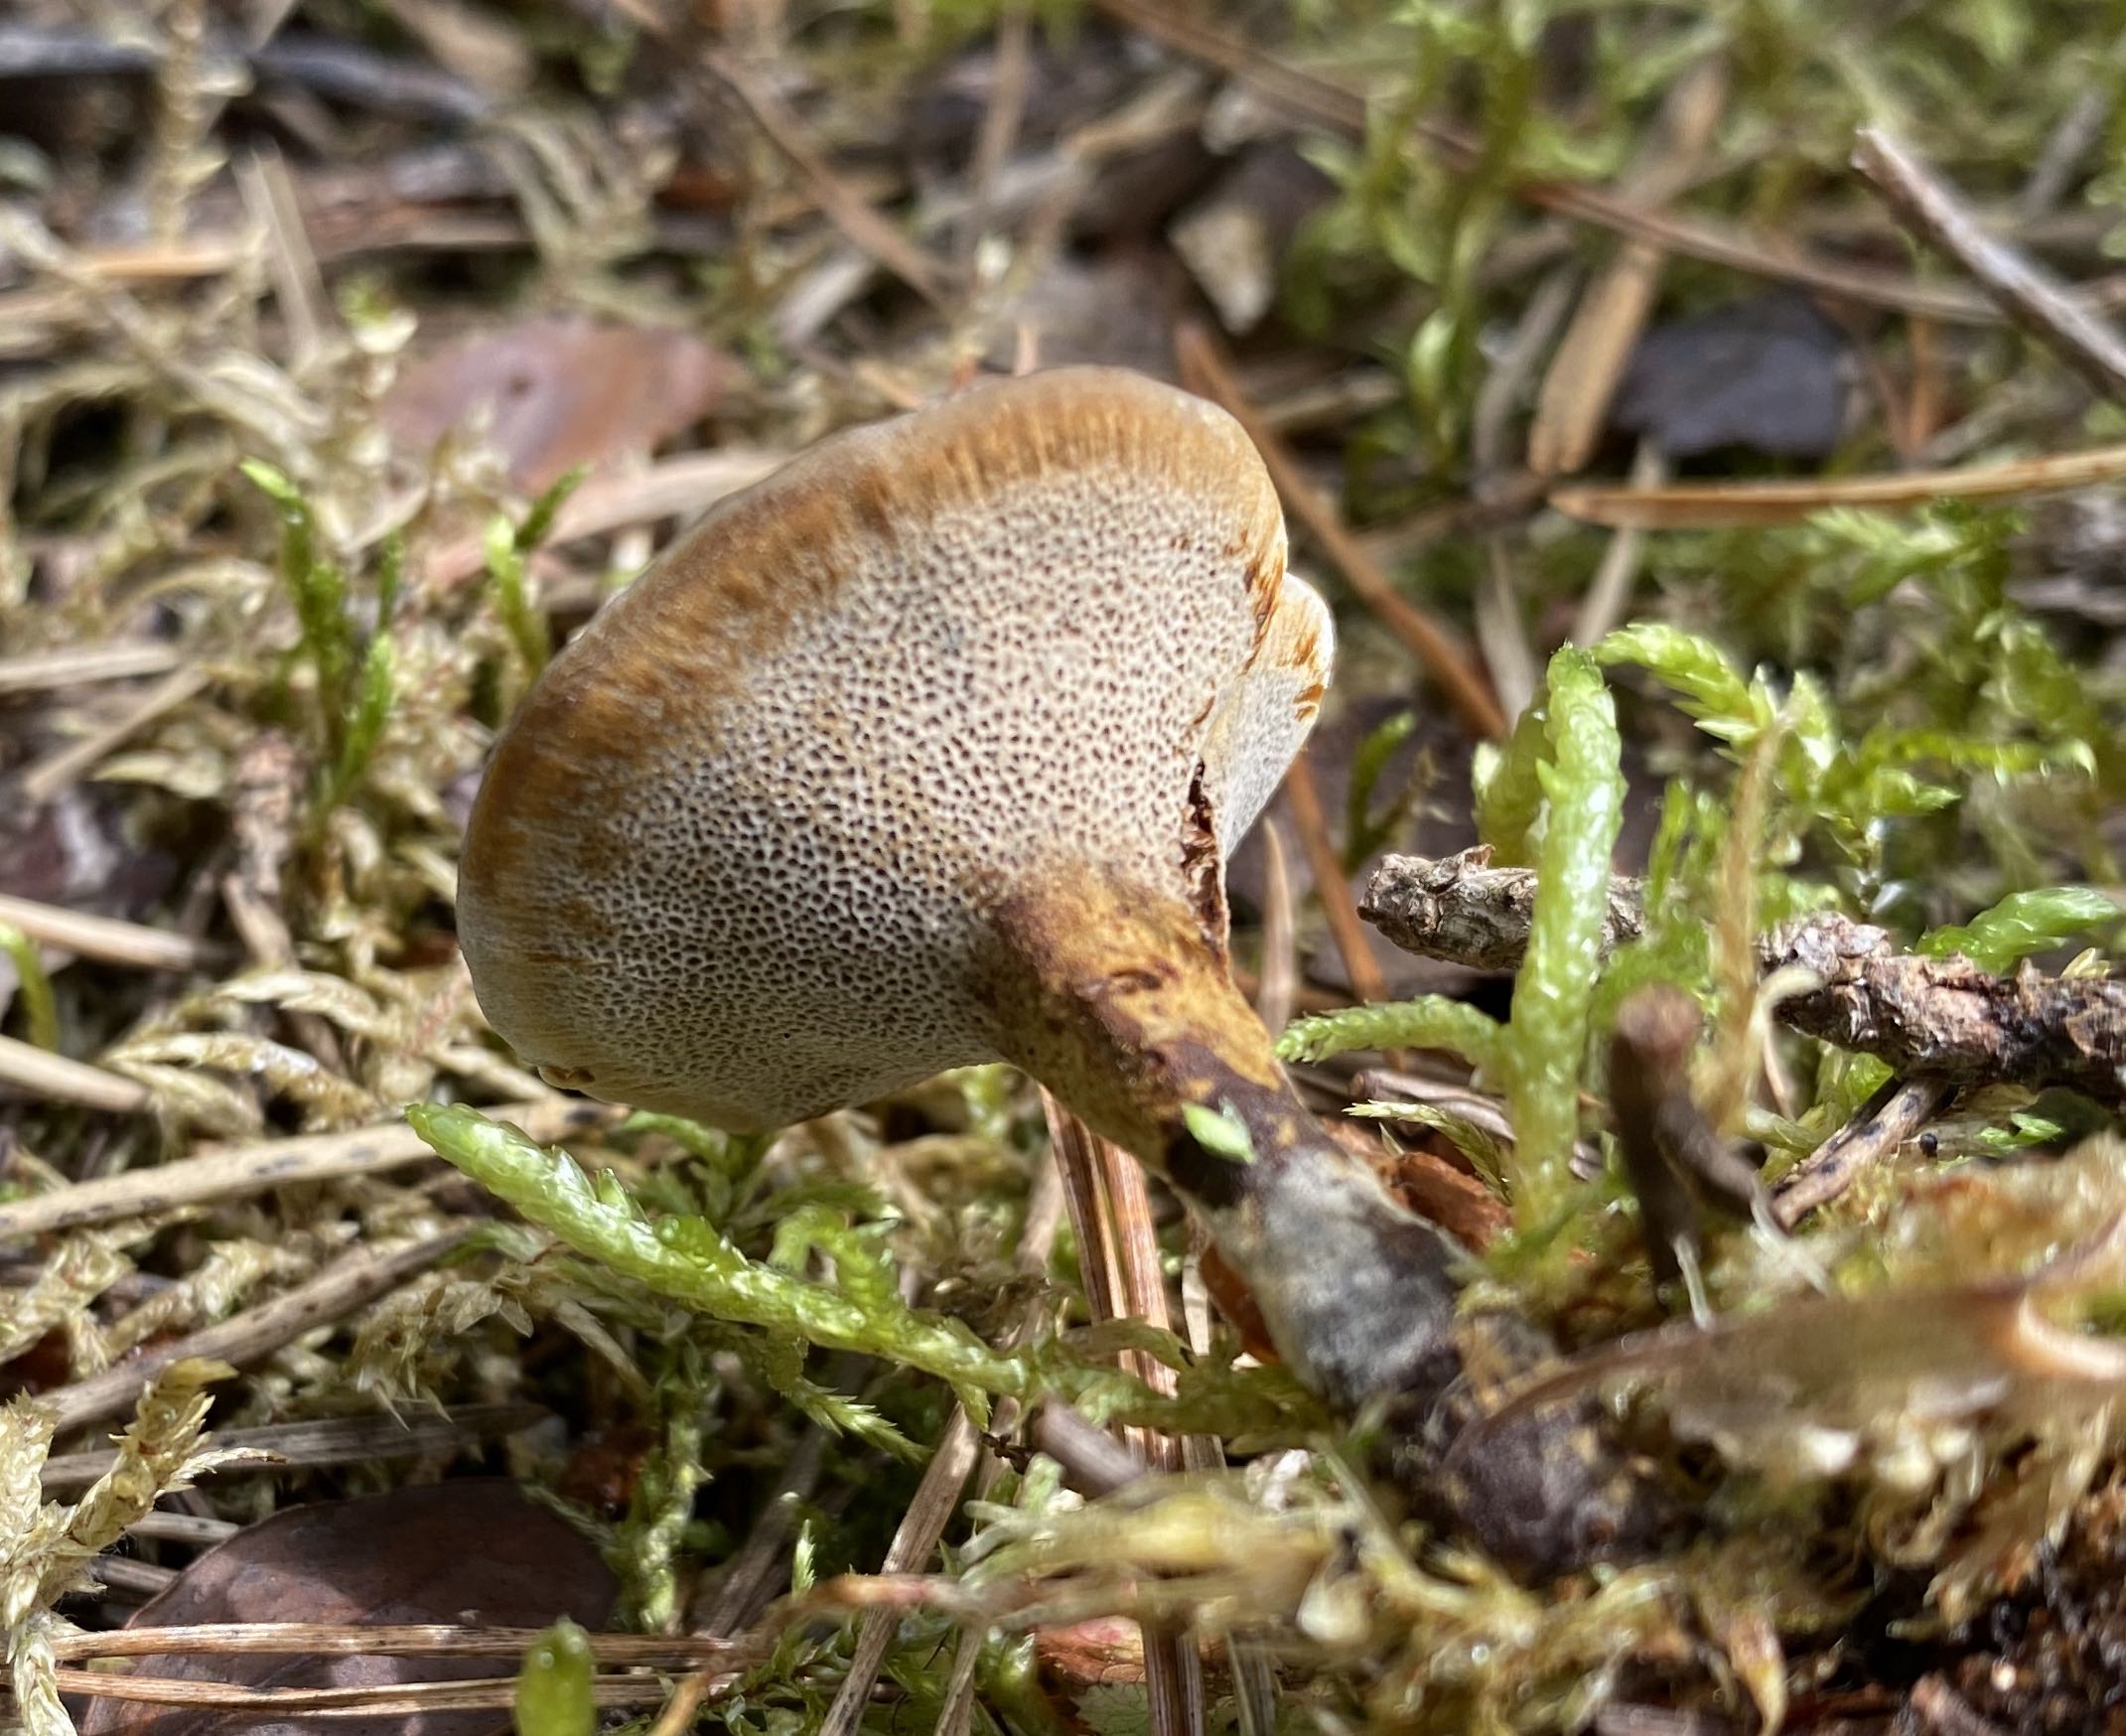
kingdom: Fungi
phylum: Basidiomycota
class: Agaricomycetes
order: Hymenochaetales
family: Hymenochaetaceae
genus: Coltricia
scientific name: Coltricia perennis
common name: almindelig sandporesvamp
